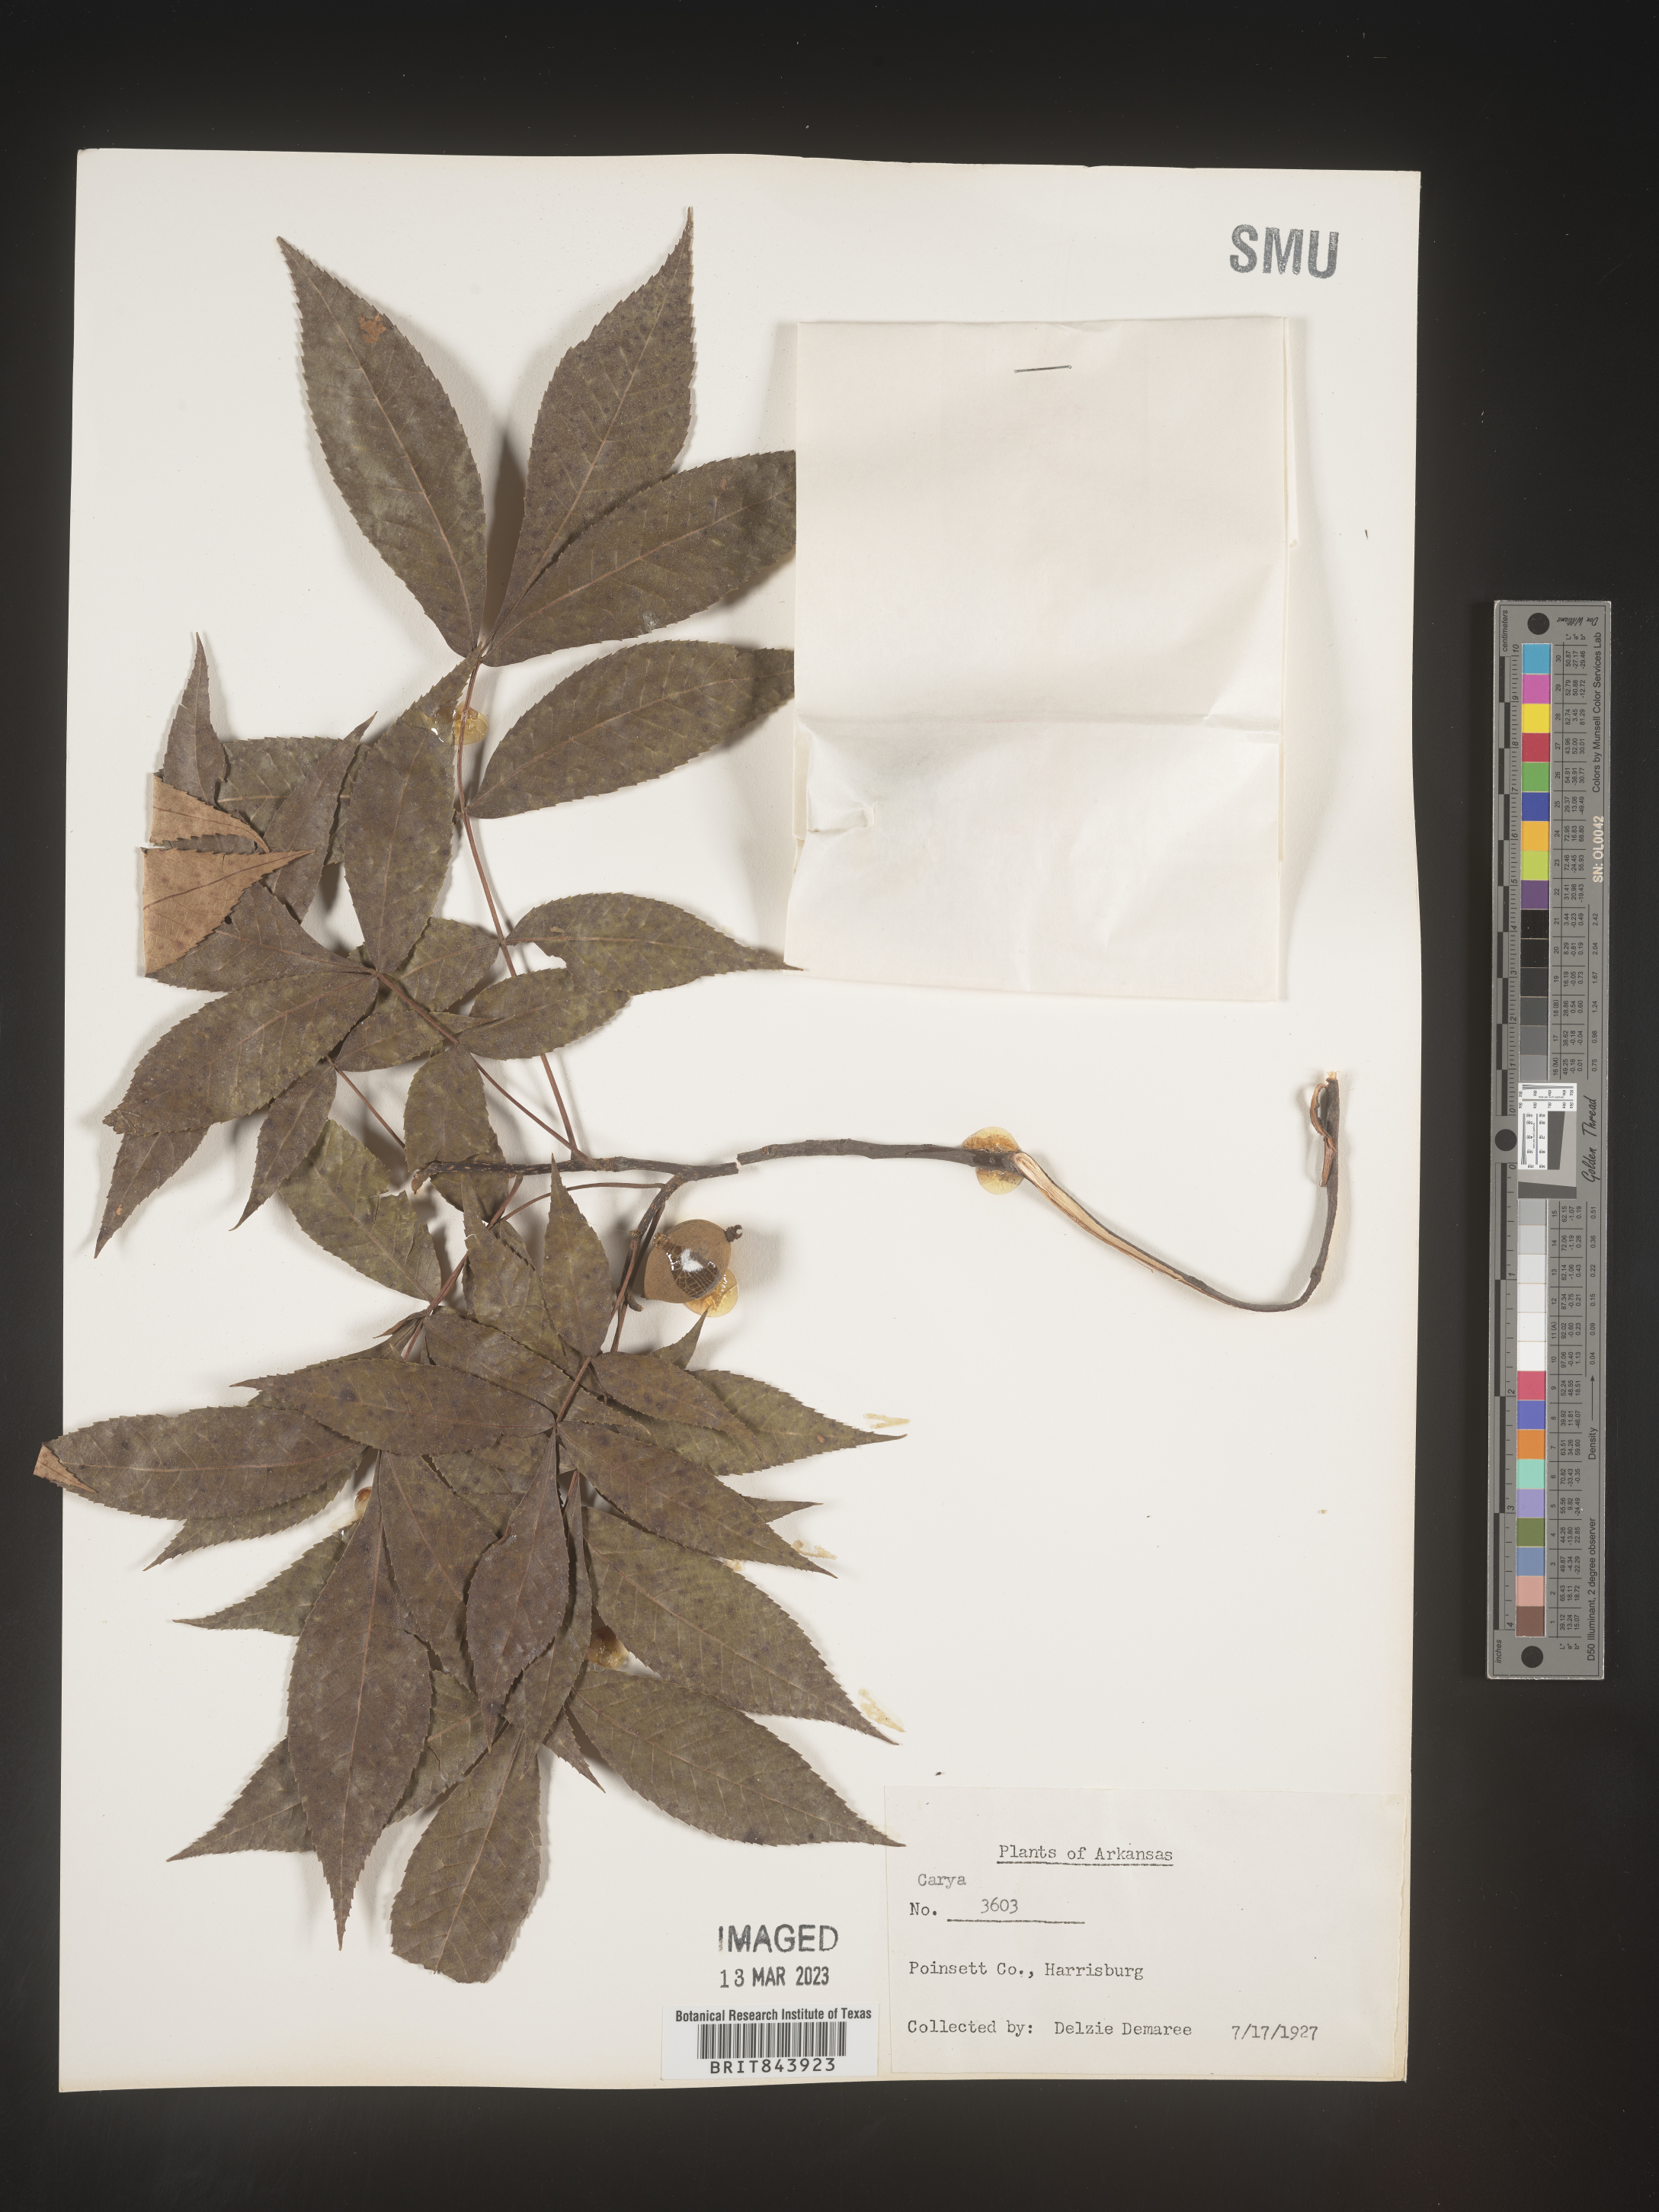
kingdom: Plantae
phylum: Tracheophyta
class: Magnoliopsida
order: Fagales
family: Juglandaceae
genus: Carya
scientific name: Carya
